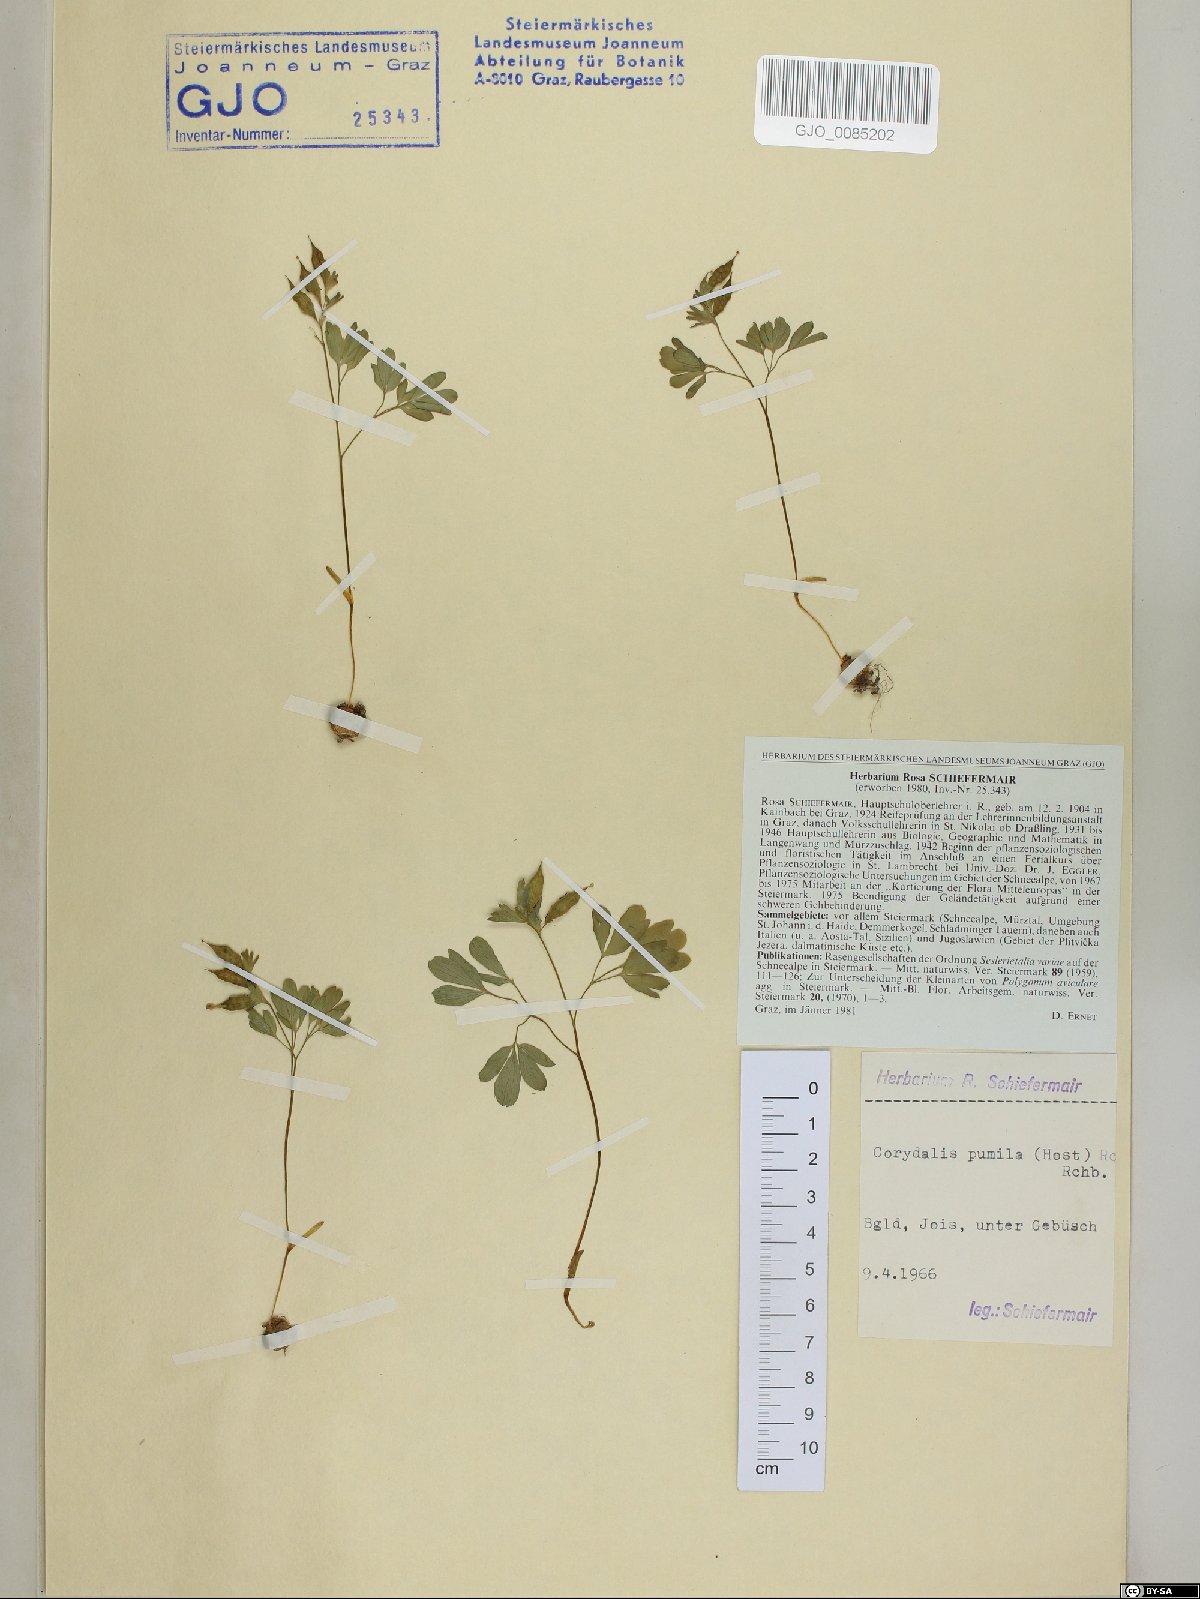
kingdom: Plantae
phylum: Tracheophyta
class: Magnoliopsida
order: Ranunculales
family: Papaveraceae
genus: Corydalis
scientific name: Corydalis pumila
